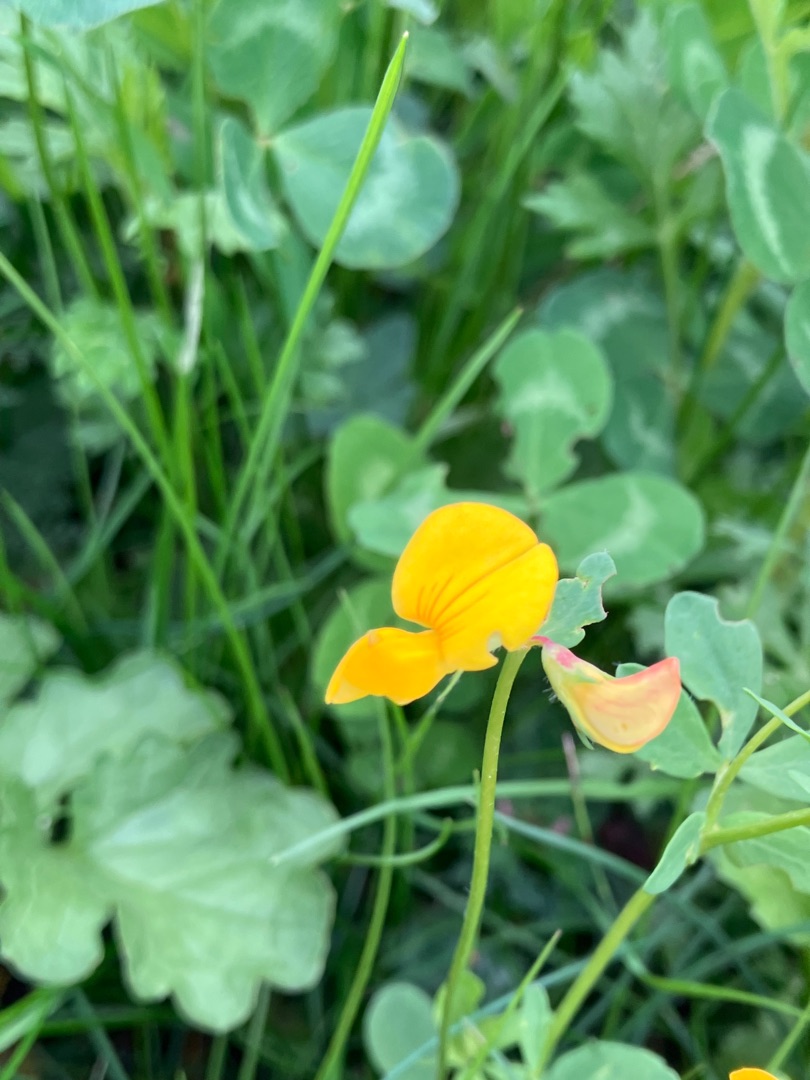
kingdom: Plantae
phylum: Tracheophyta
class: Magnoliopsida
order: Fabales
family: Fabaceae
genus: Lotus
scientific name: Lotus corniculatus
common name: Almindelig kællingetand
